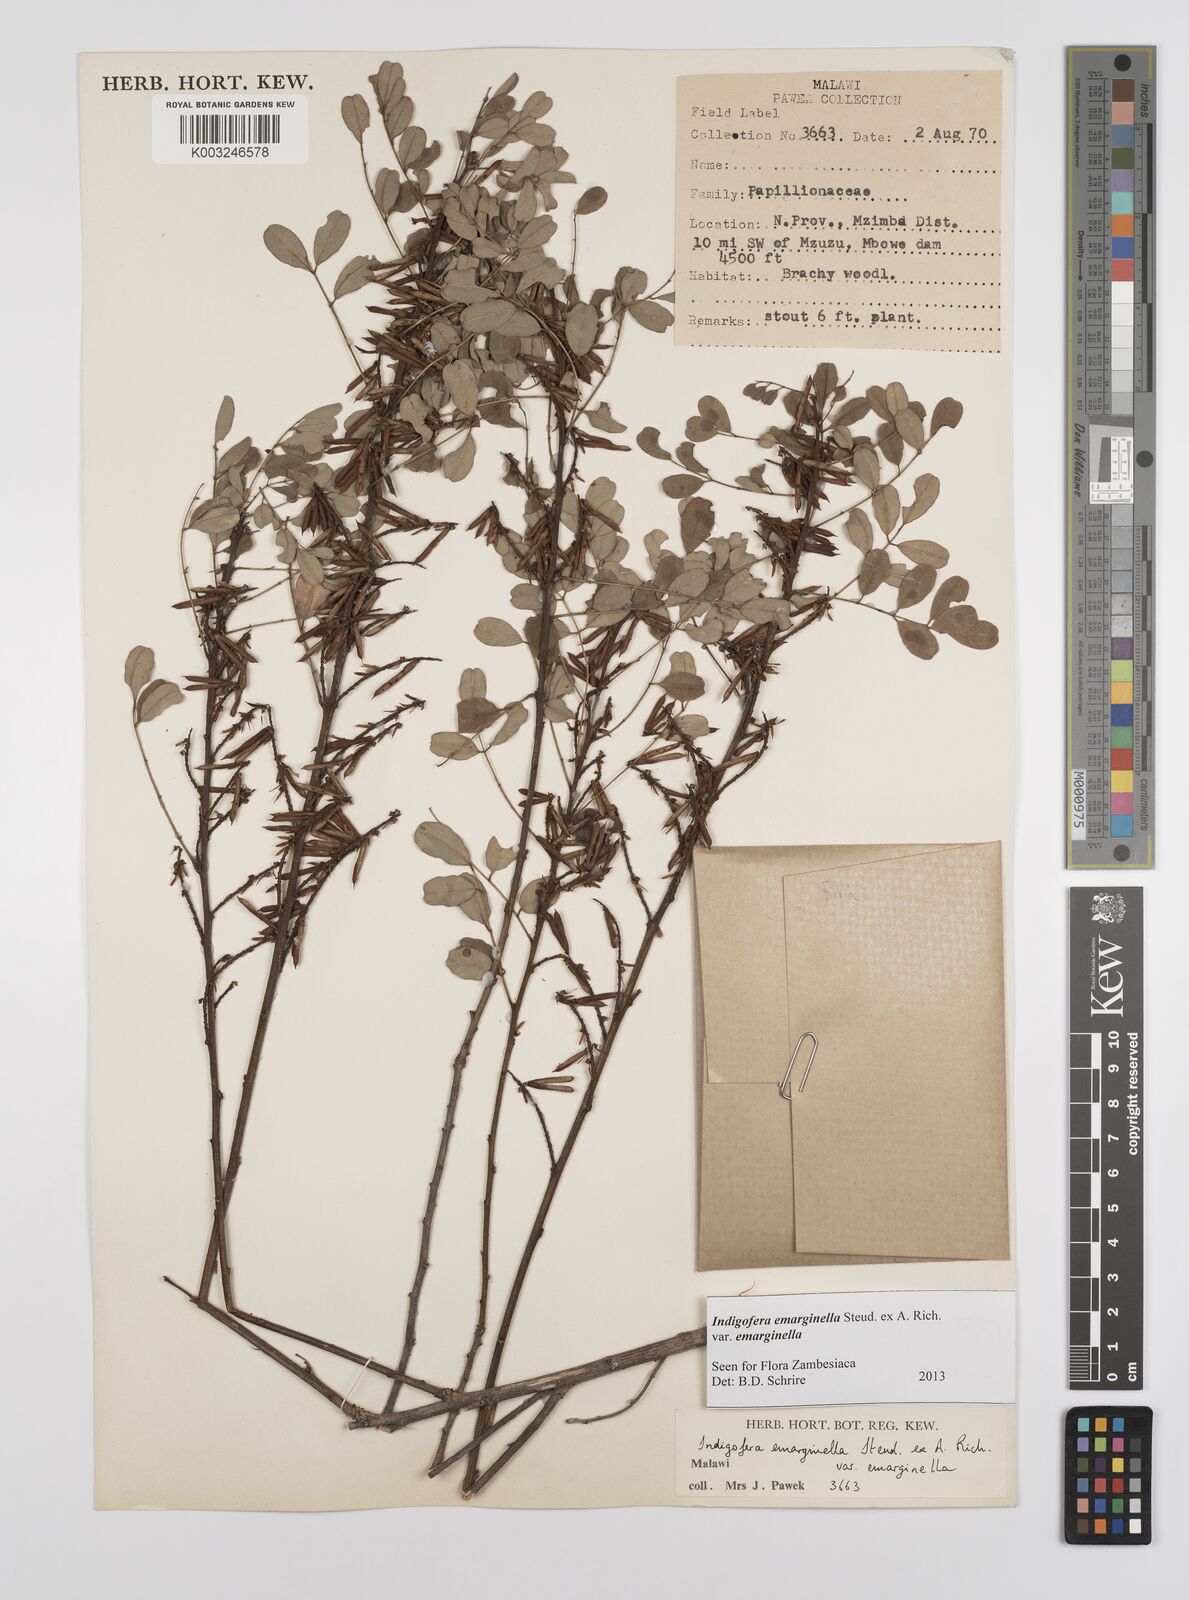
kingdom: Plantae
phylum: Tracheophyta
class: Magnoliopsida
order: Fabales
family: Fabaceae
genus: Indigofera
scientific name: Indigofera emarginella
